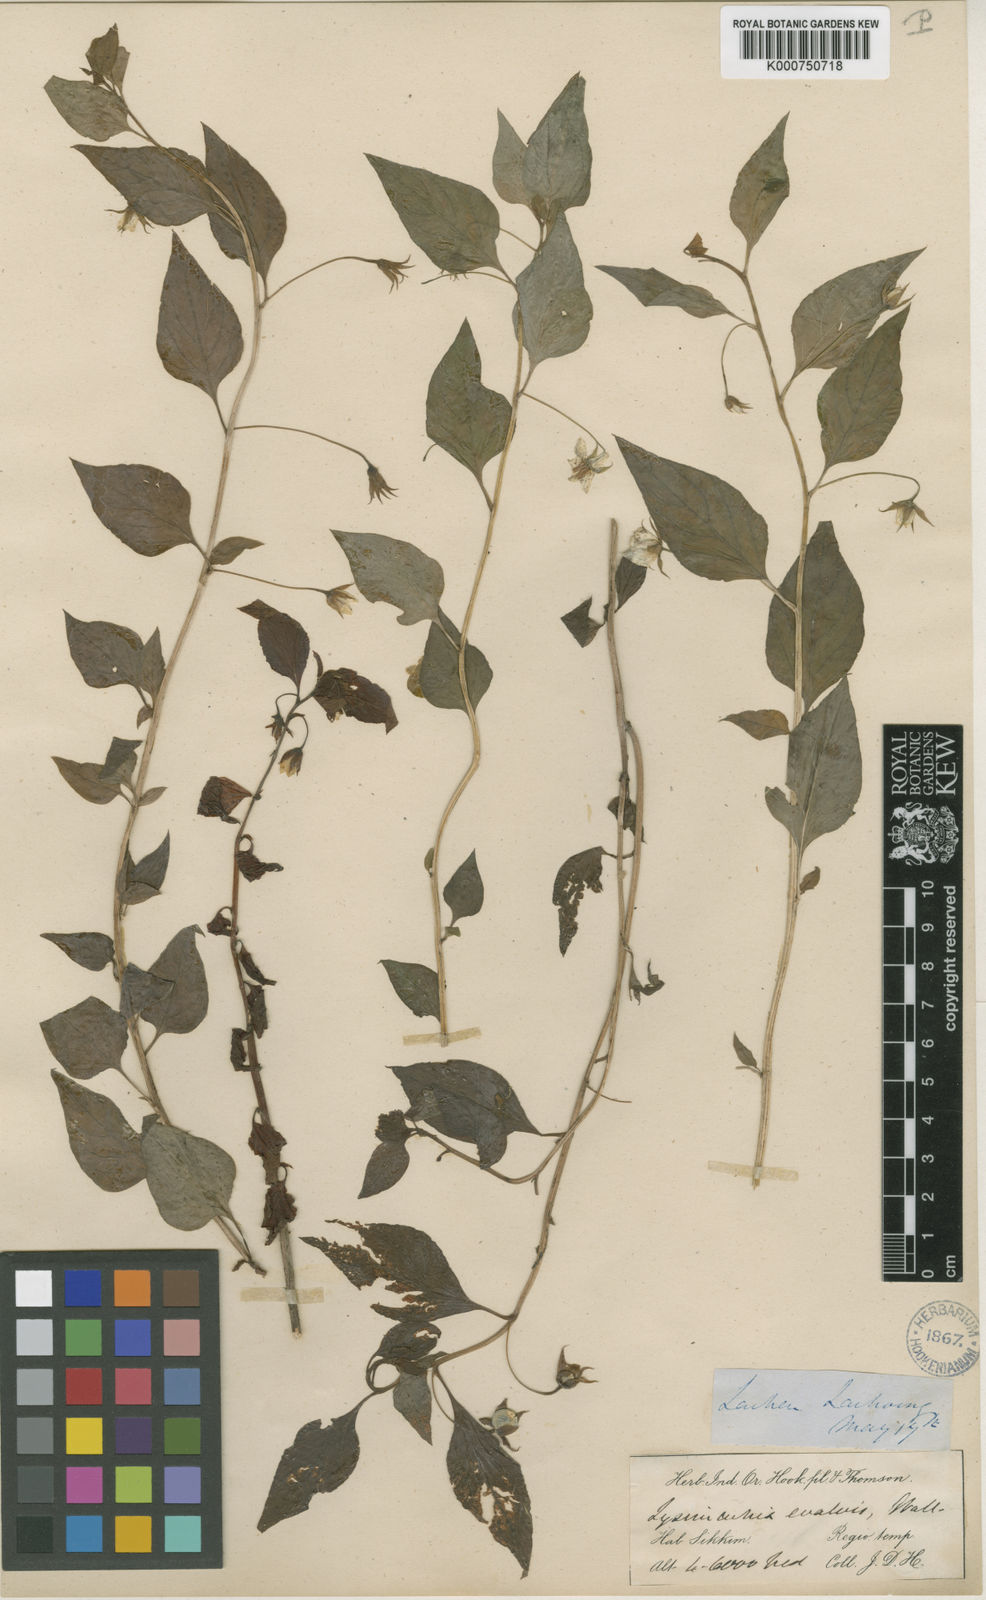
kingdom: Plantae
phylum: Tracheophyta
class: Magnoliopsida
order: Ericales
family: Primulaceae
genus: Lysimachia
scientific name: Lysimachia evalvis
